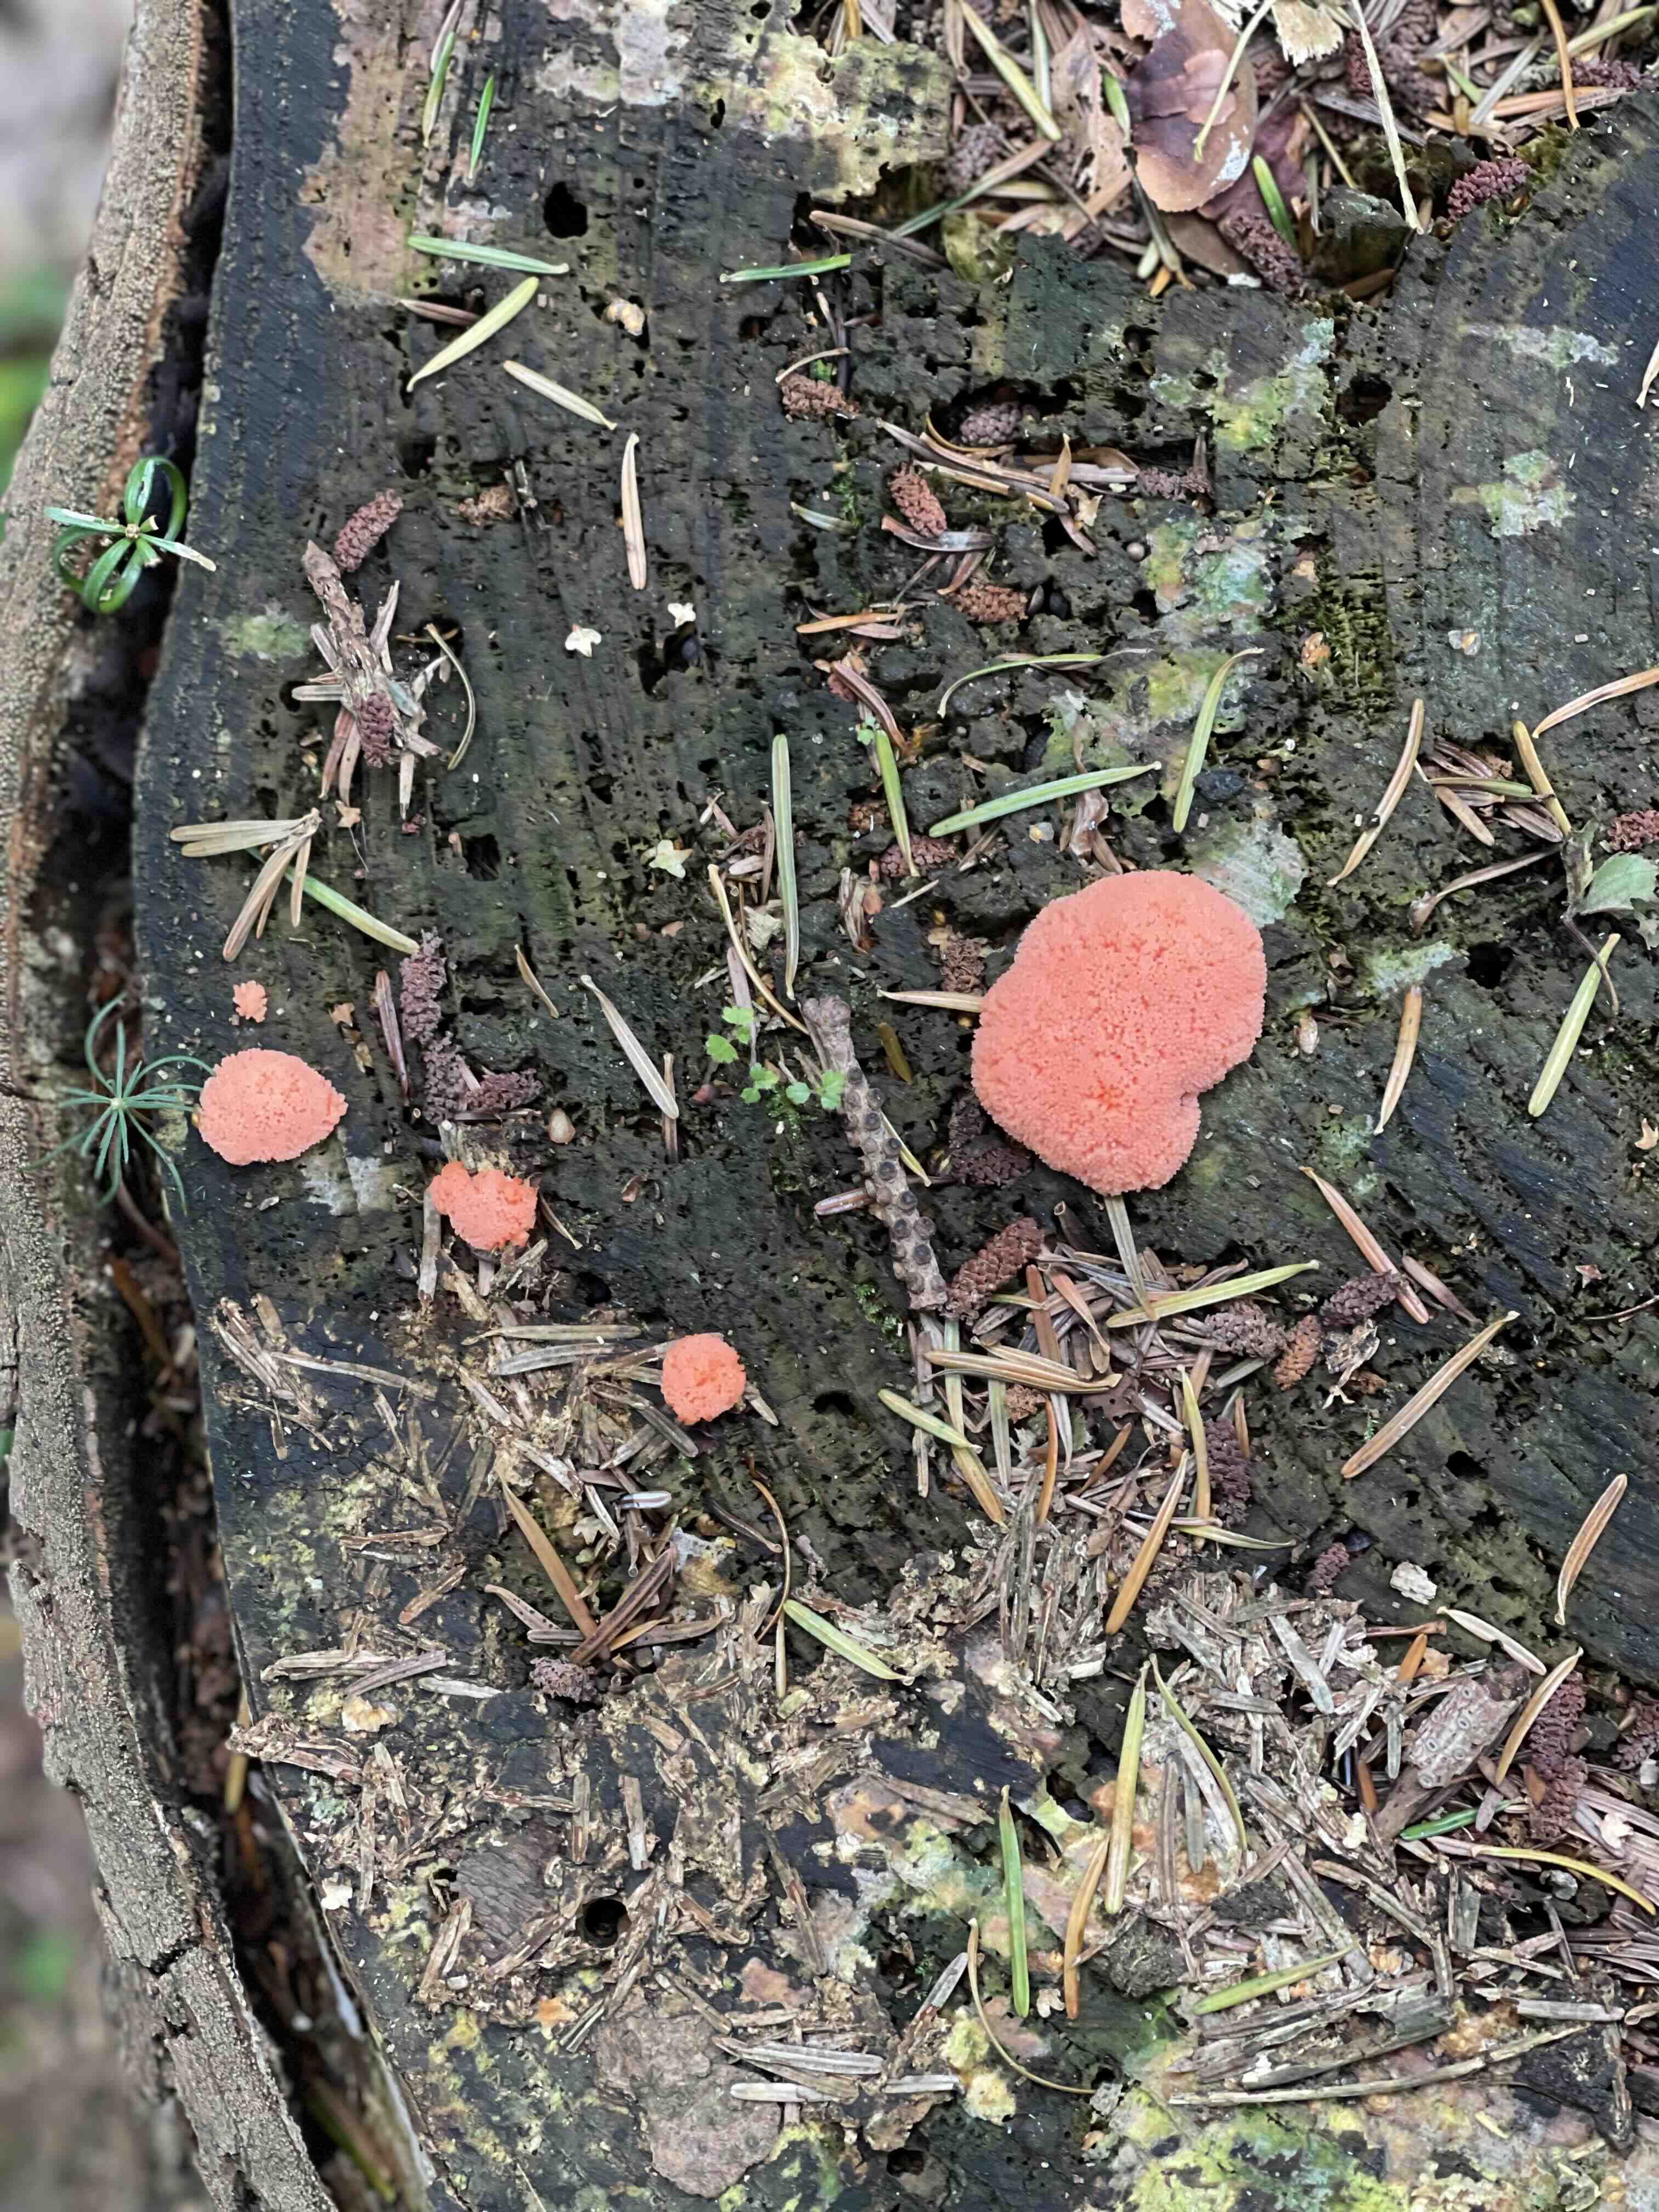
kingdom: Protozoa
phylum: Mycetozoa
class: Myxomycetes
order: Cribrariales
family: Tubiferaceae
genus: Tubifera
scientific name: Tubifera ferruginosa
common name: kanel-støvrør
